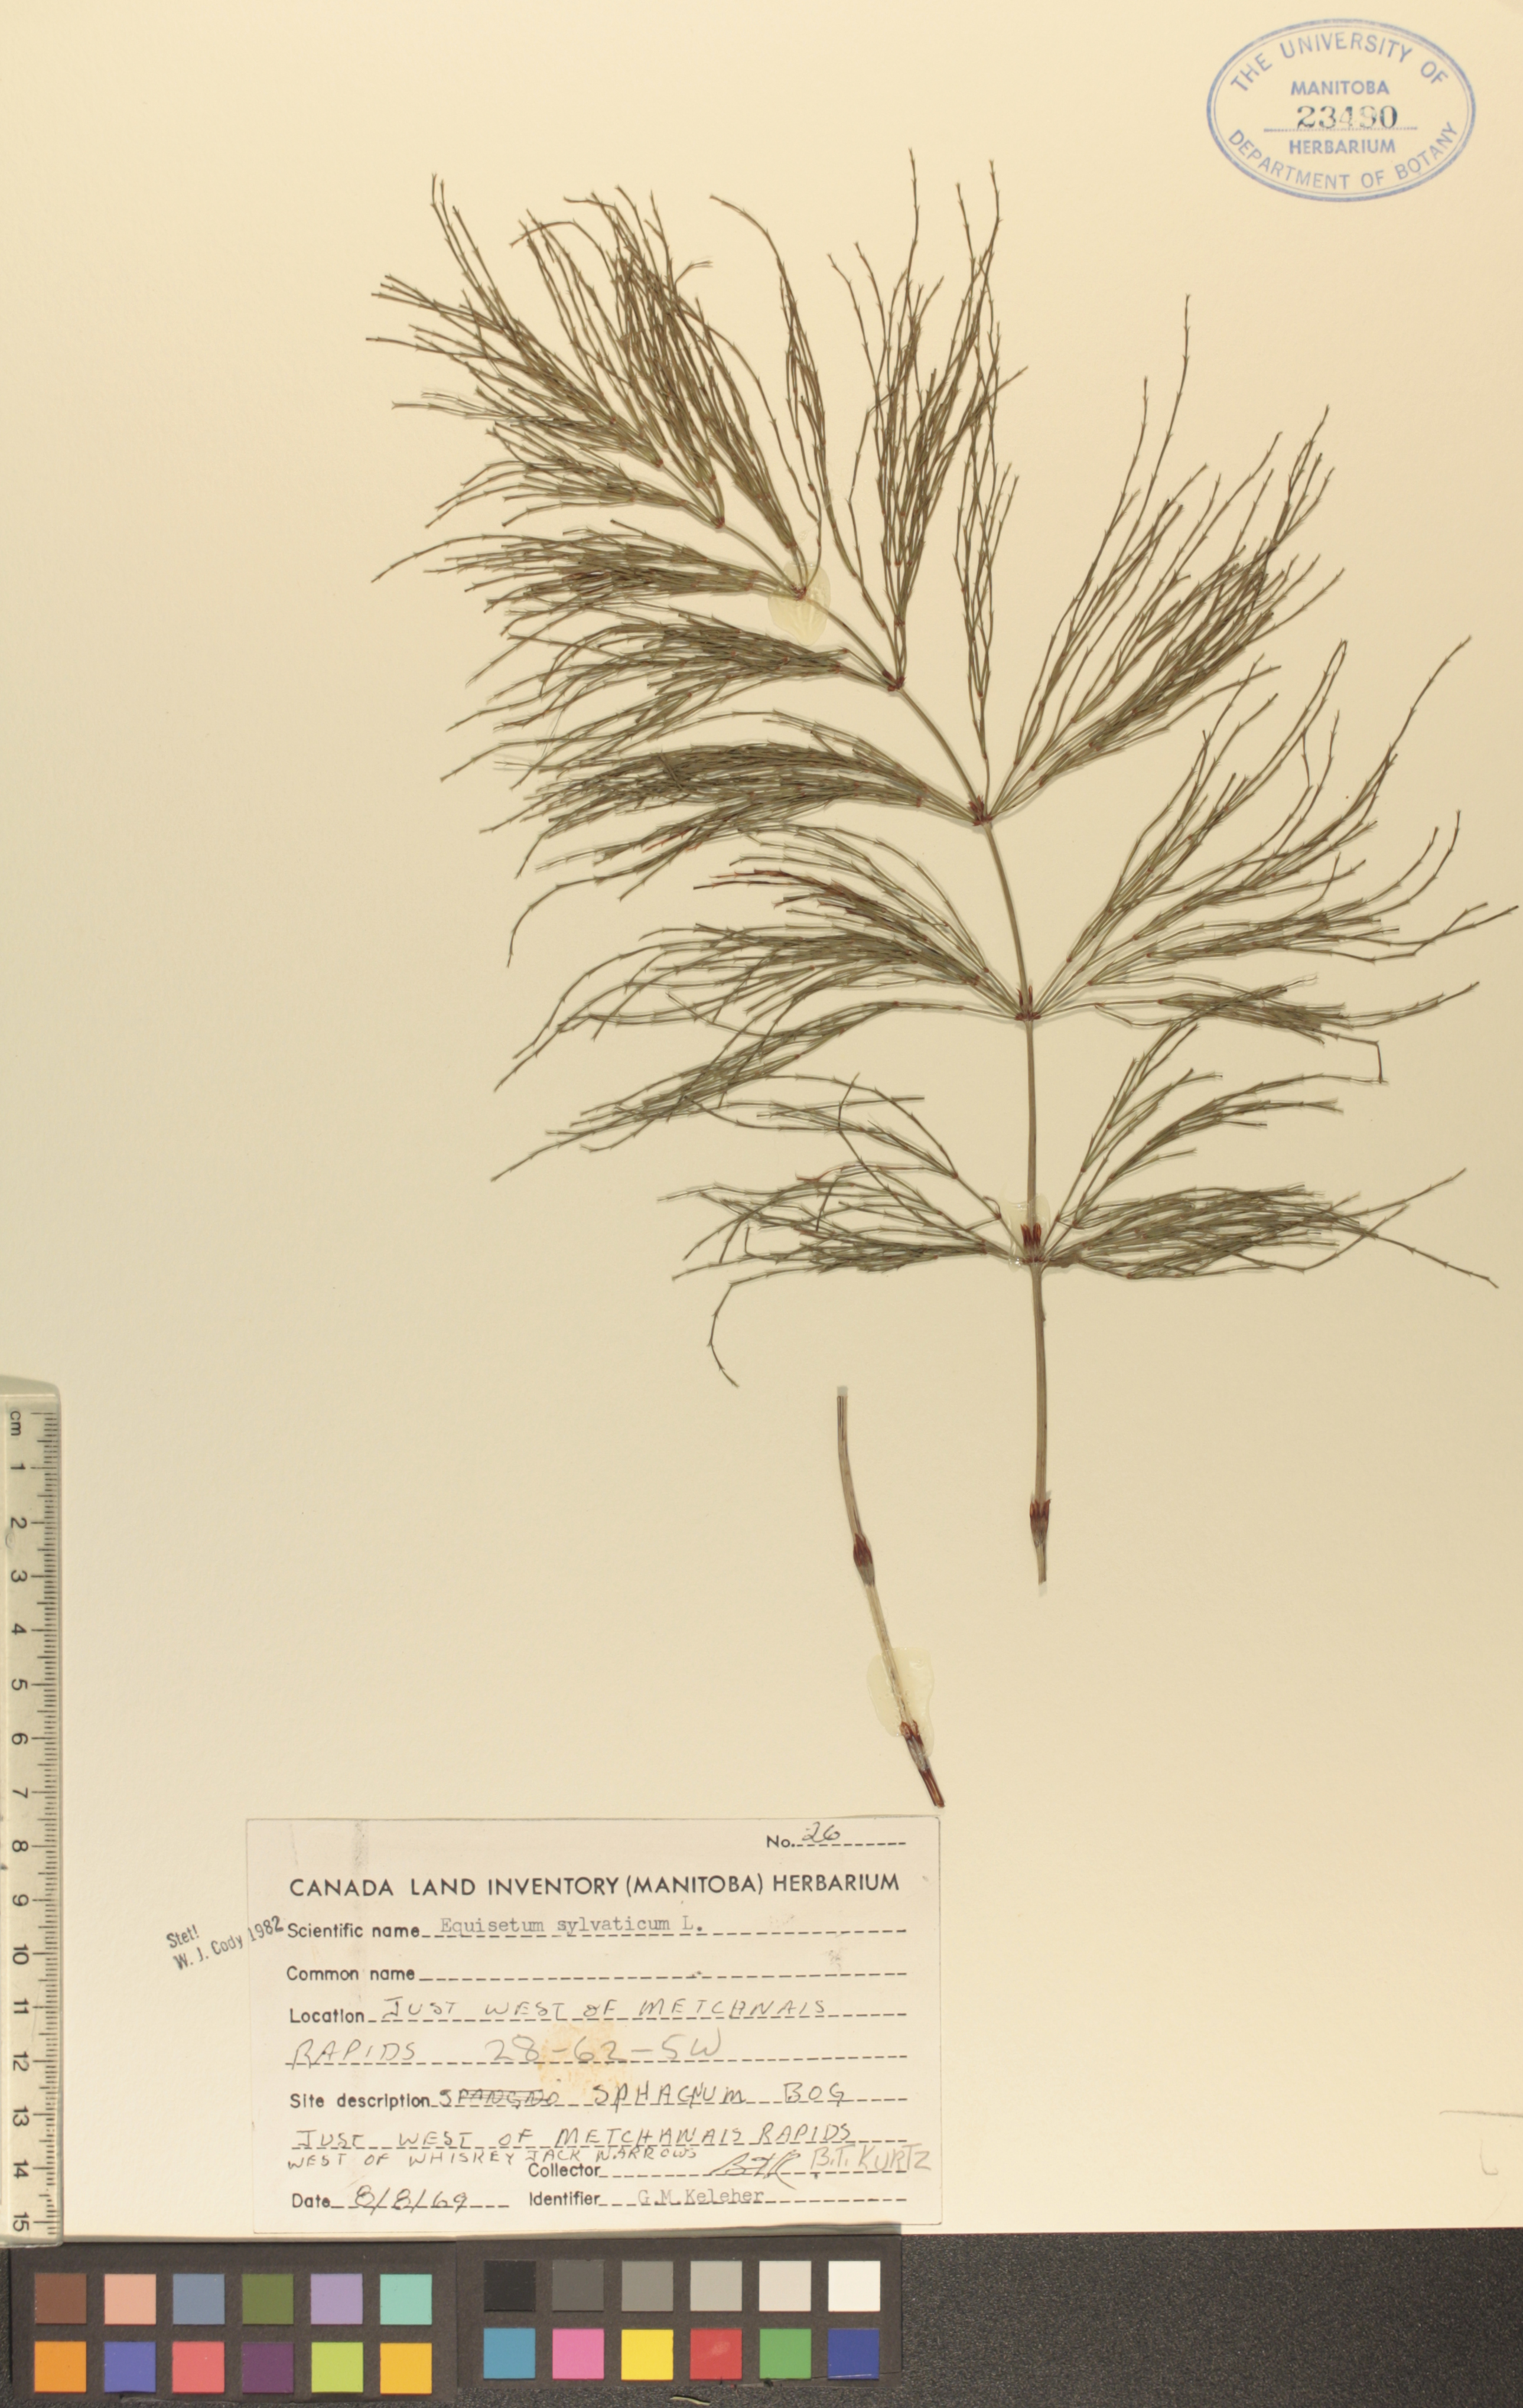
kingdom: Plantae
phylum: Tracheophyta
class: Polypodiopsida
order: Equisetales
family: Equisetaceae
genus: Equisetum
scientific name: Equisetum sylvaticum
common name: Wood horsetail
